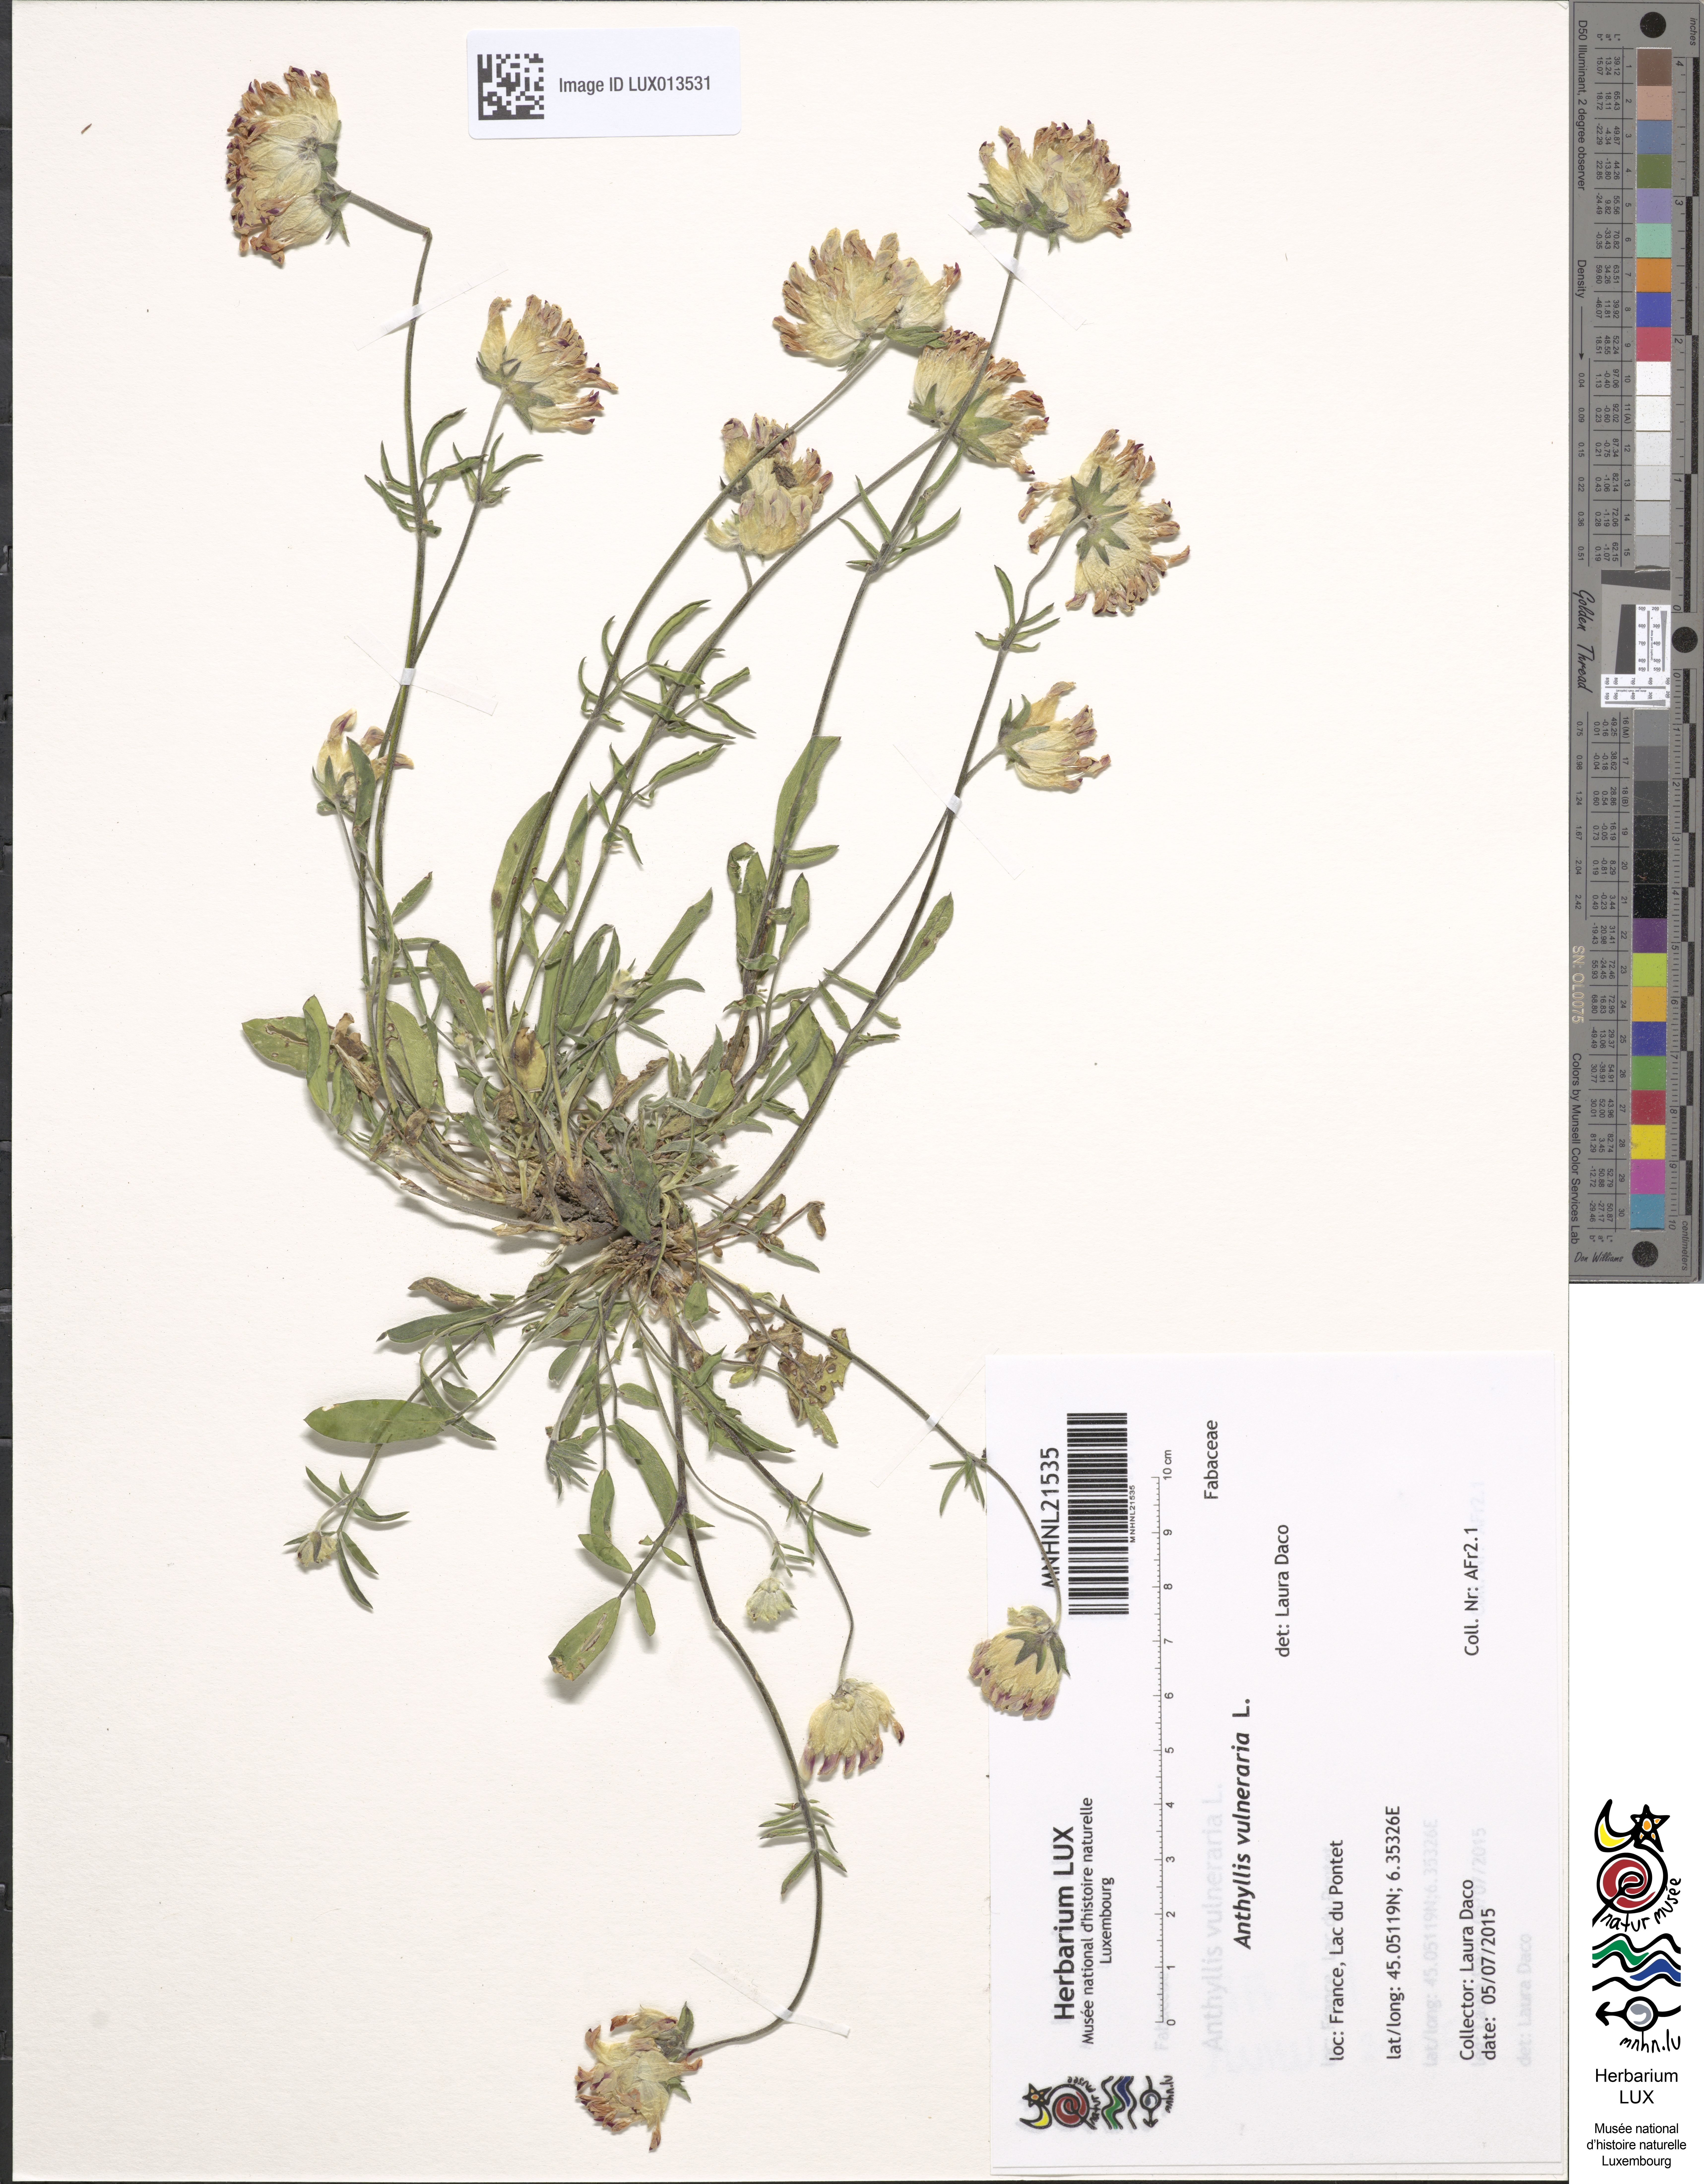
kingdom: Plantae
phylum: Tracheophyta
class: Magnoliopsida
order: Fabales
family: Fabaceae
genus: Anthyllis
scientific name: Anthyllis vulneraria
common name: Kidney vetch
